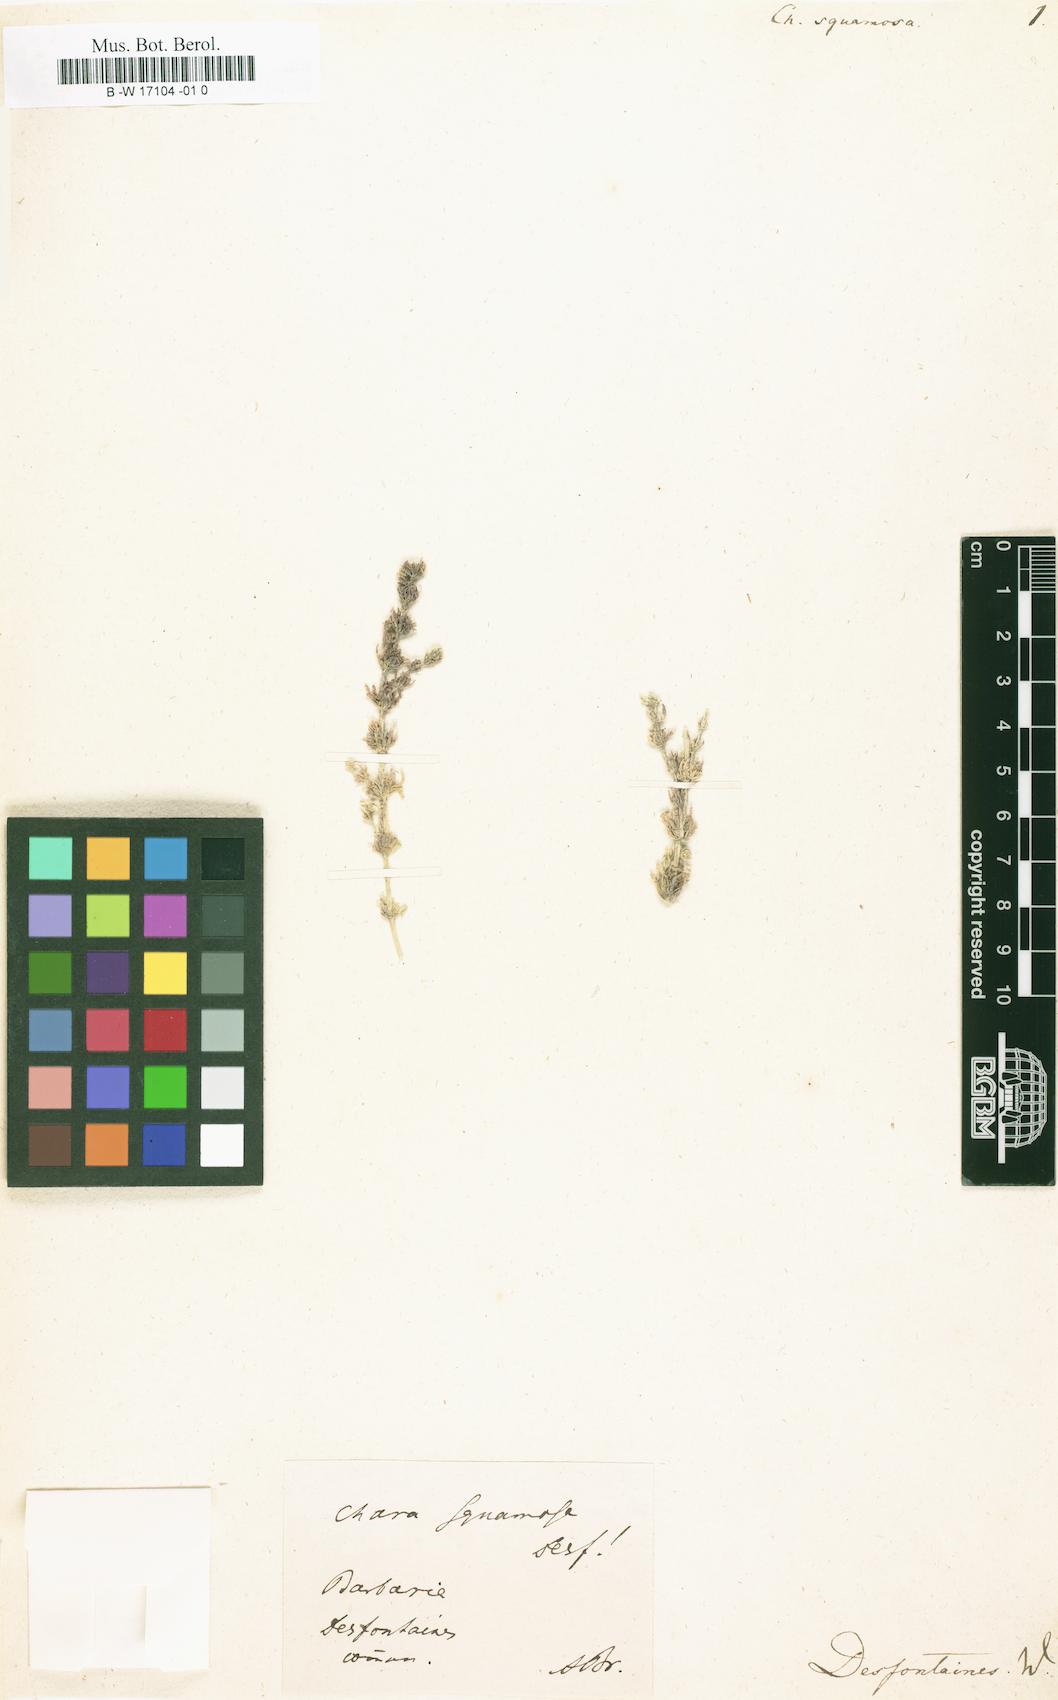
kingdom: Plantae
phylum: Charophyta
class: Charophyceae
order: Charales
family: Characeae
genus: Chara
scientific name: Chara vulgaris
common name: Common stonewort
